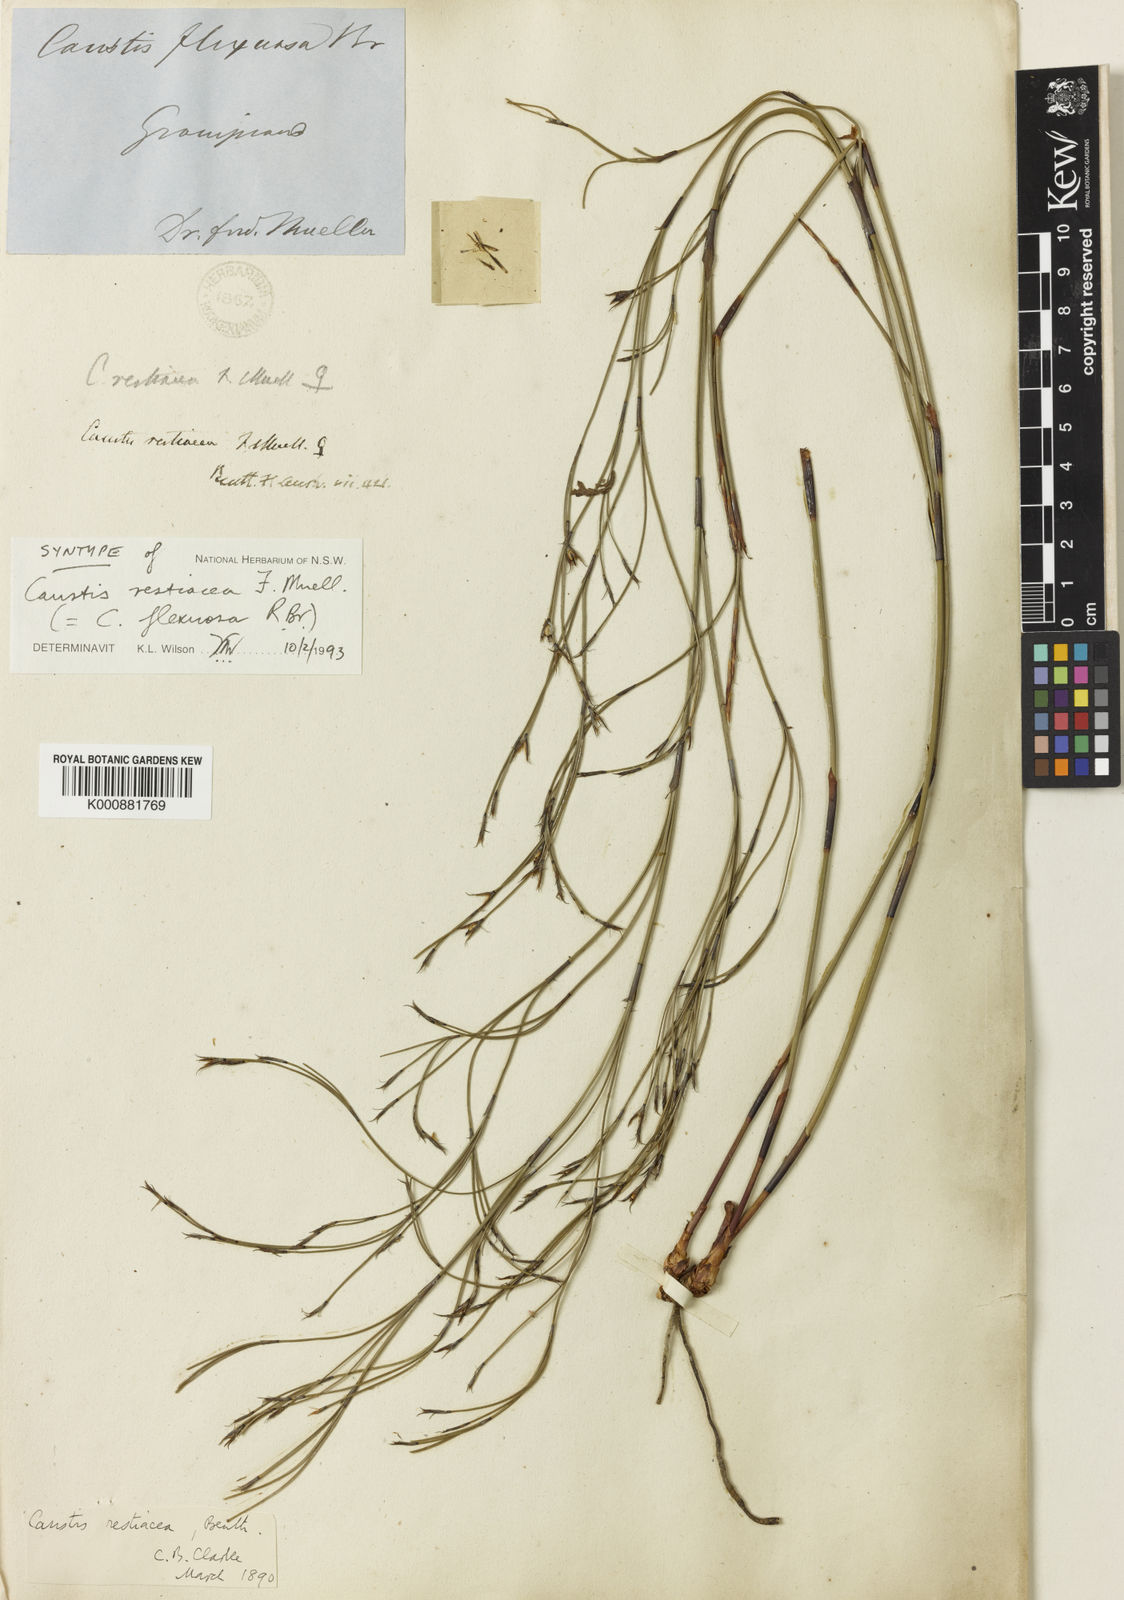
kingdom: Plantae
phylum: Tracheophyta
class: Liliopsida
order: Poales
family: Cyperaceae
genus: Caustis
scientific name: Caustis flexuosa
